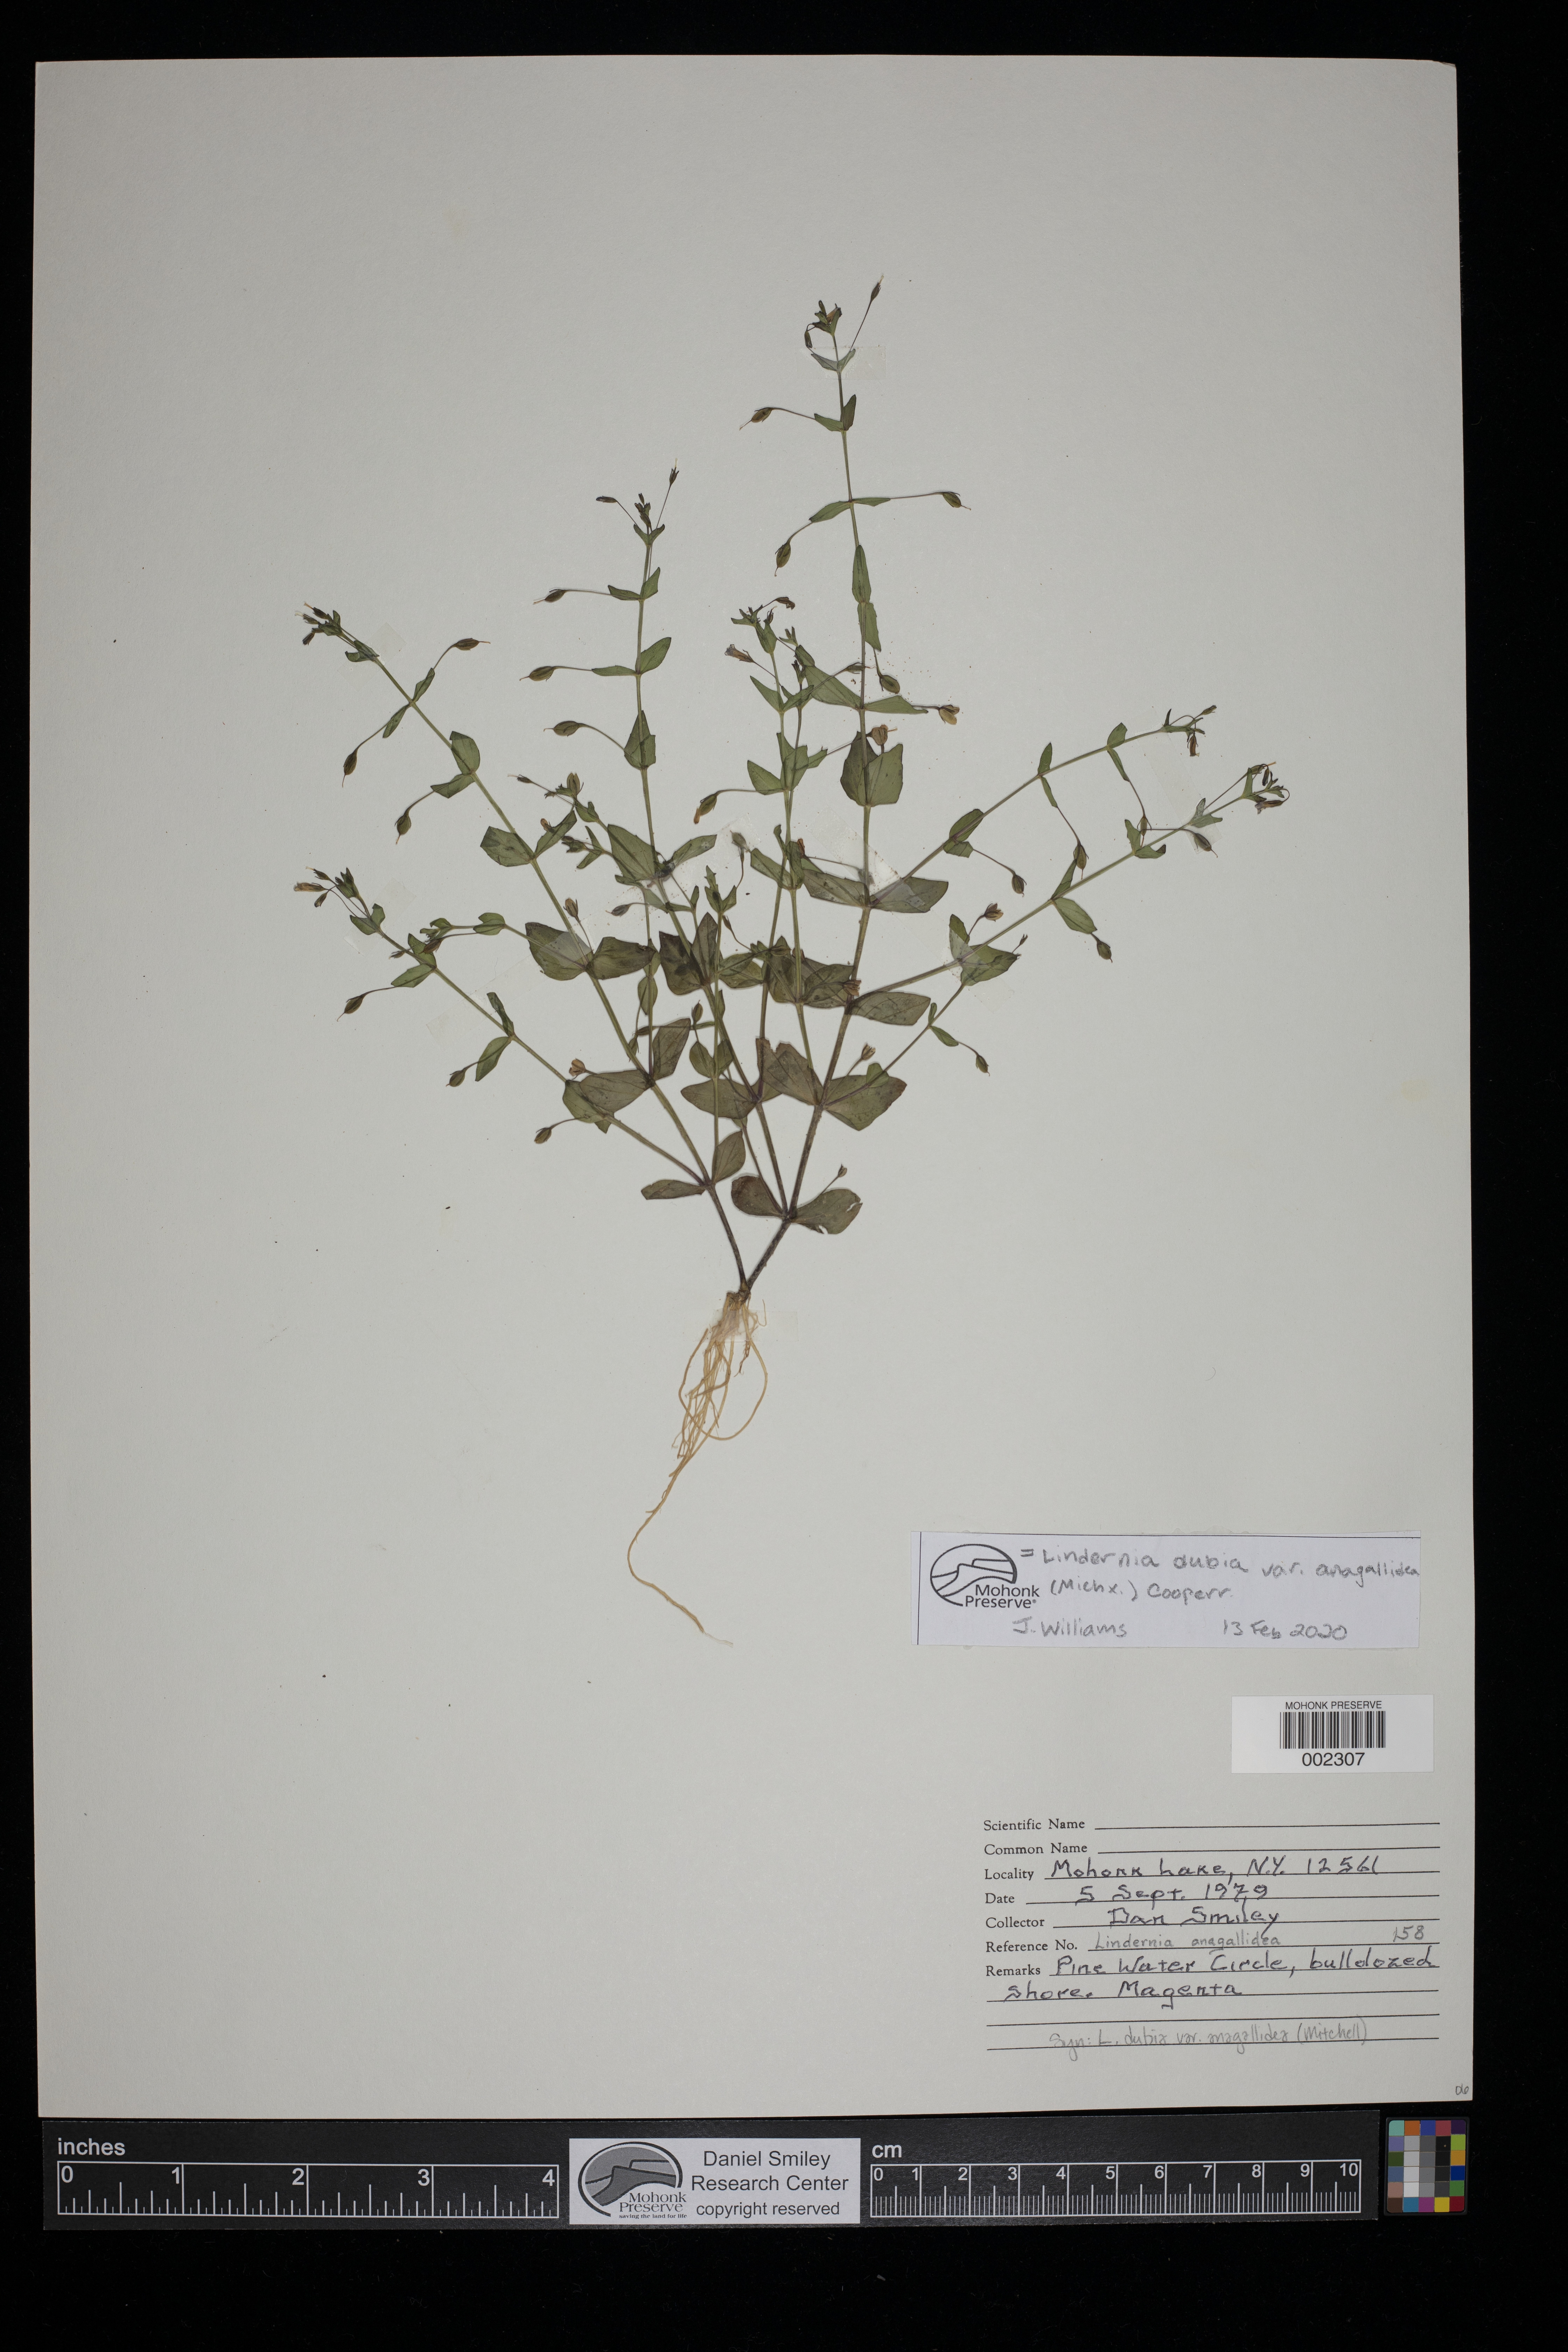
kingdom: Plantae
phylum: Tracheophyta
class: Magnoliopsida
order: Lamiales
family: Linderniaceae
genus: Lindernia
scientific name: Lindernia dubia
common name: Annual false pimpernel
